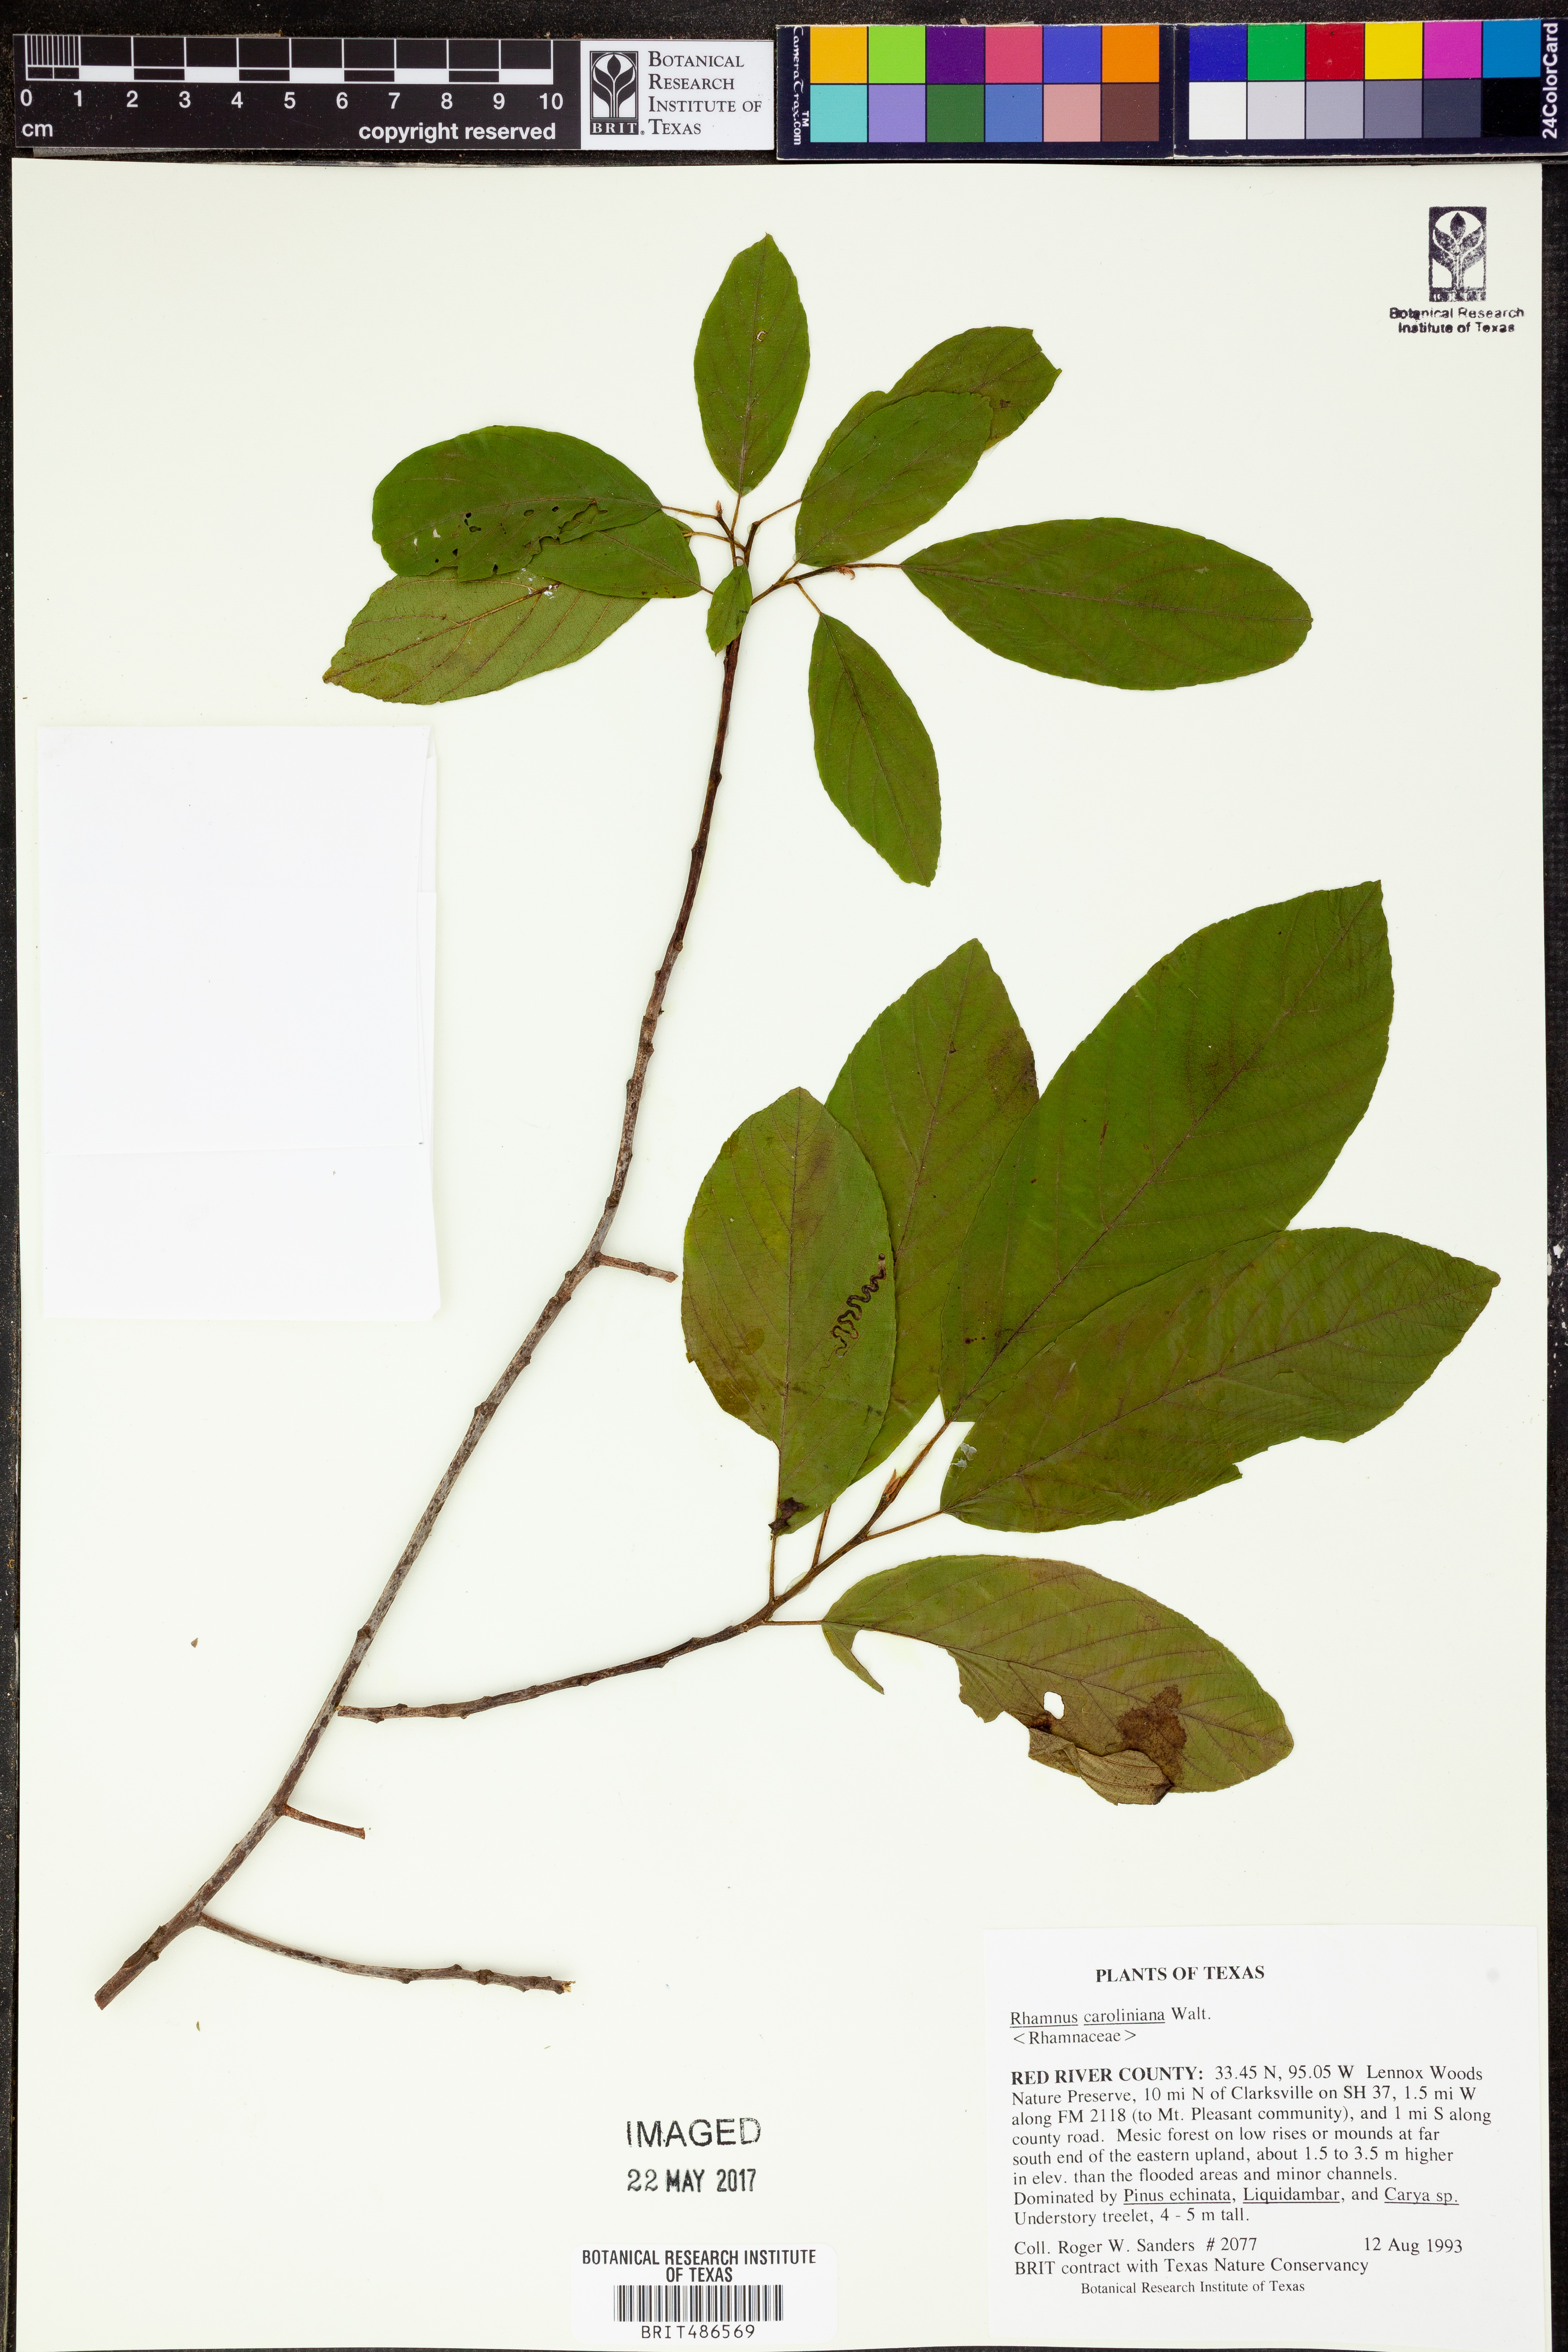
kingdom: Plantae
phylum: Tracheophyta
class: Magnoliopsida
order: Rosales
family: Rhamnaceae
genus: Frangula
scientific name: Frangula caroliniana
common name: Carolina buckthorn
